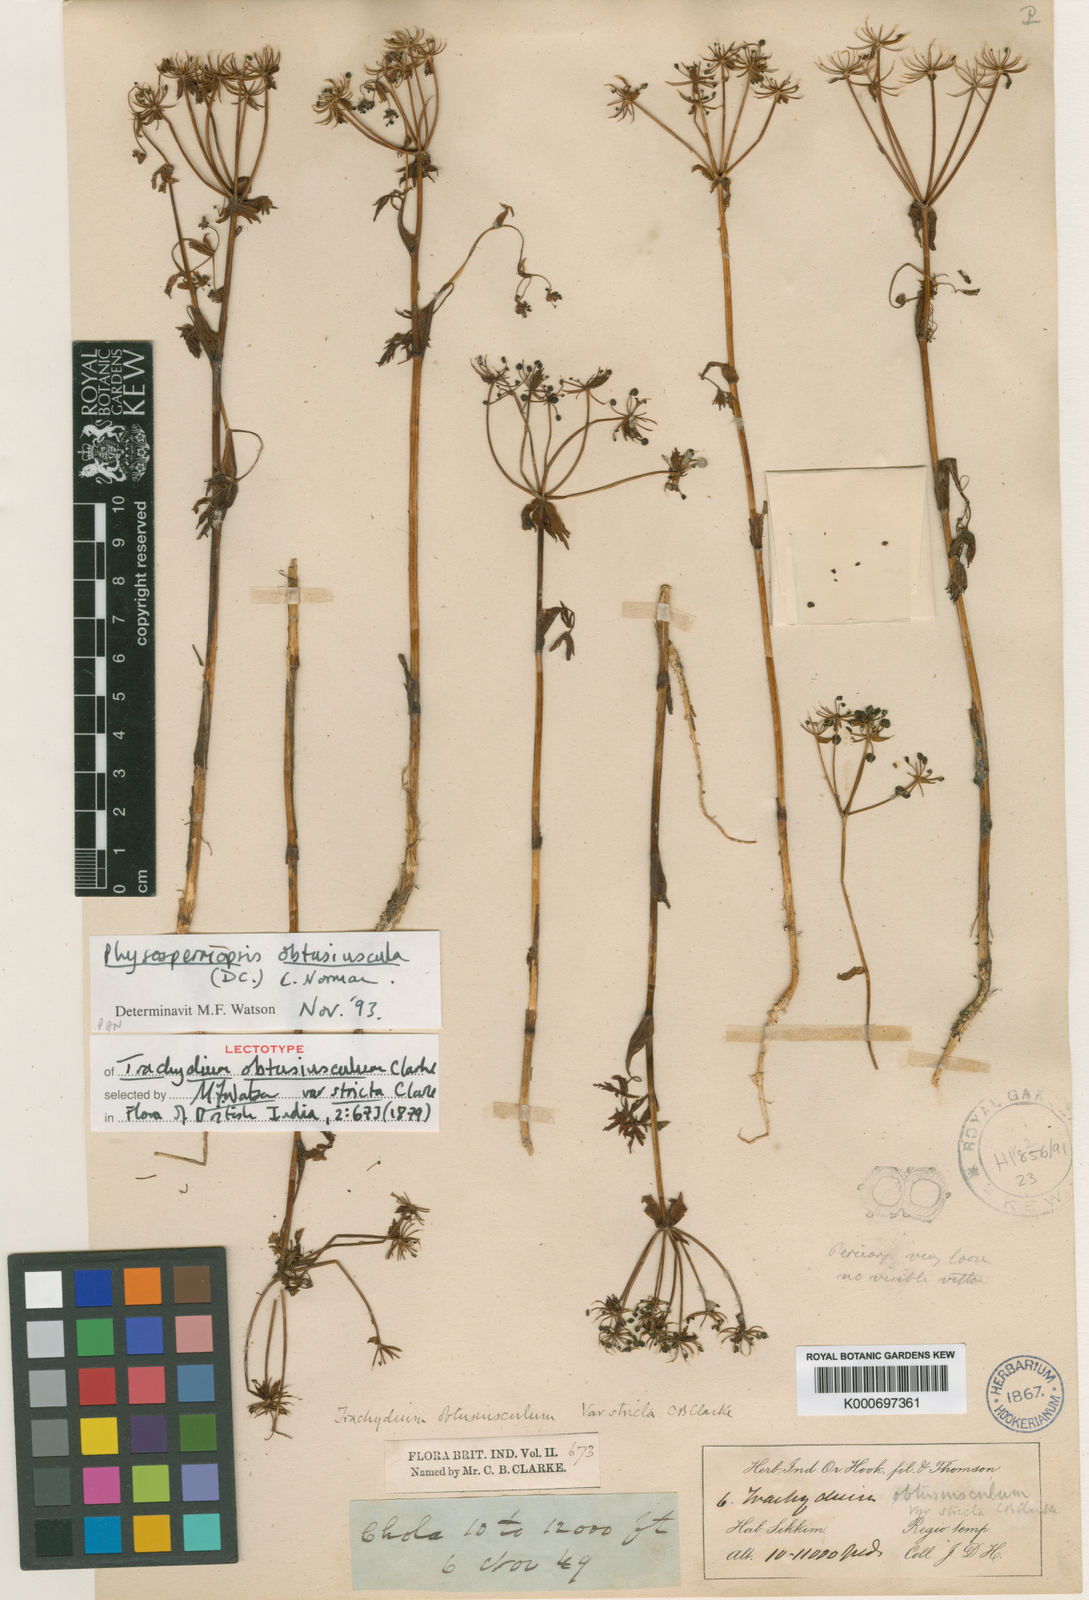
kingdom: Plantae
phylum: Tracheophyta
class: Magnoliopsida
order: Apiales
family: Apiaceae
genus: Physospermopsis
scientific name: Physospermopsis obtusiuscula
